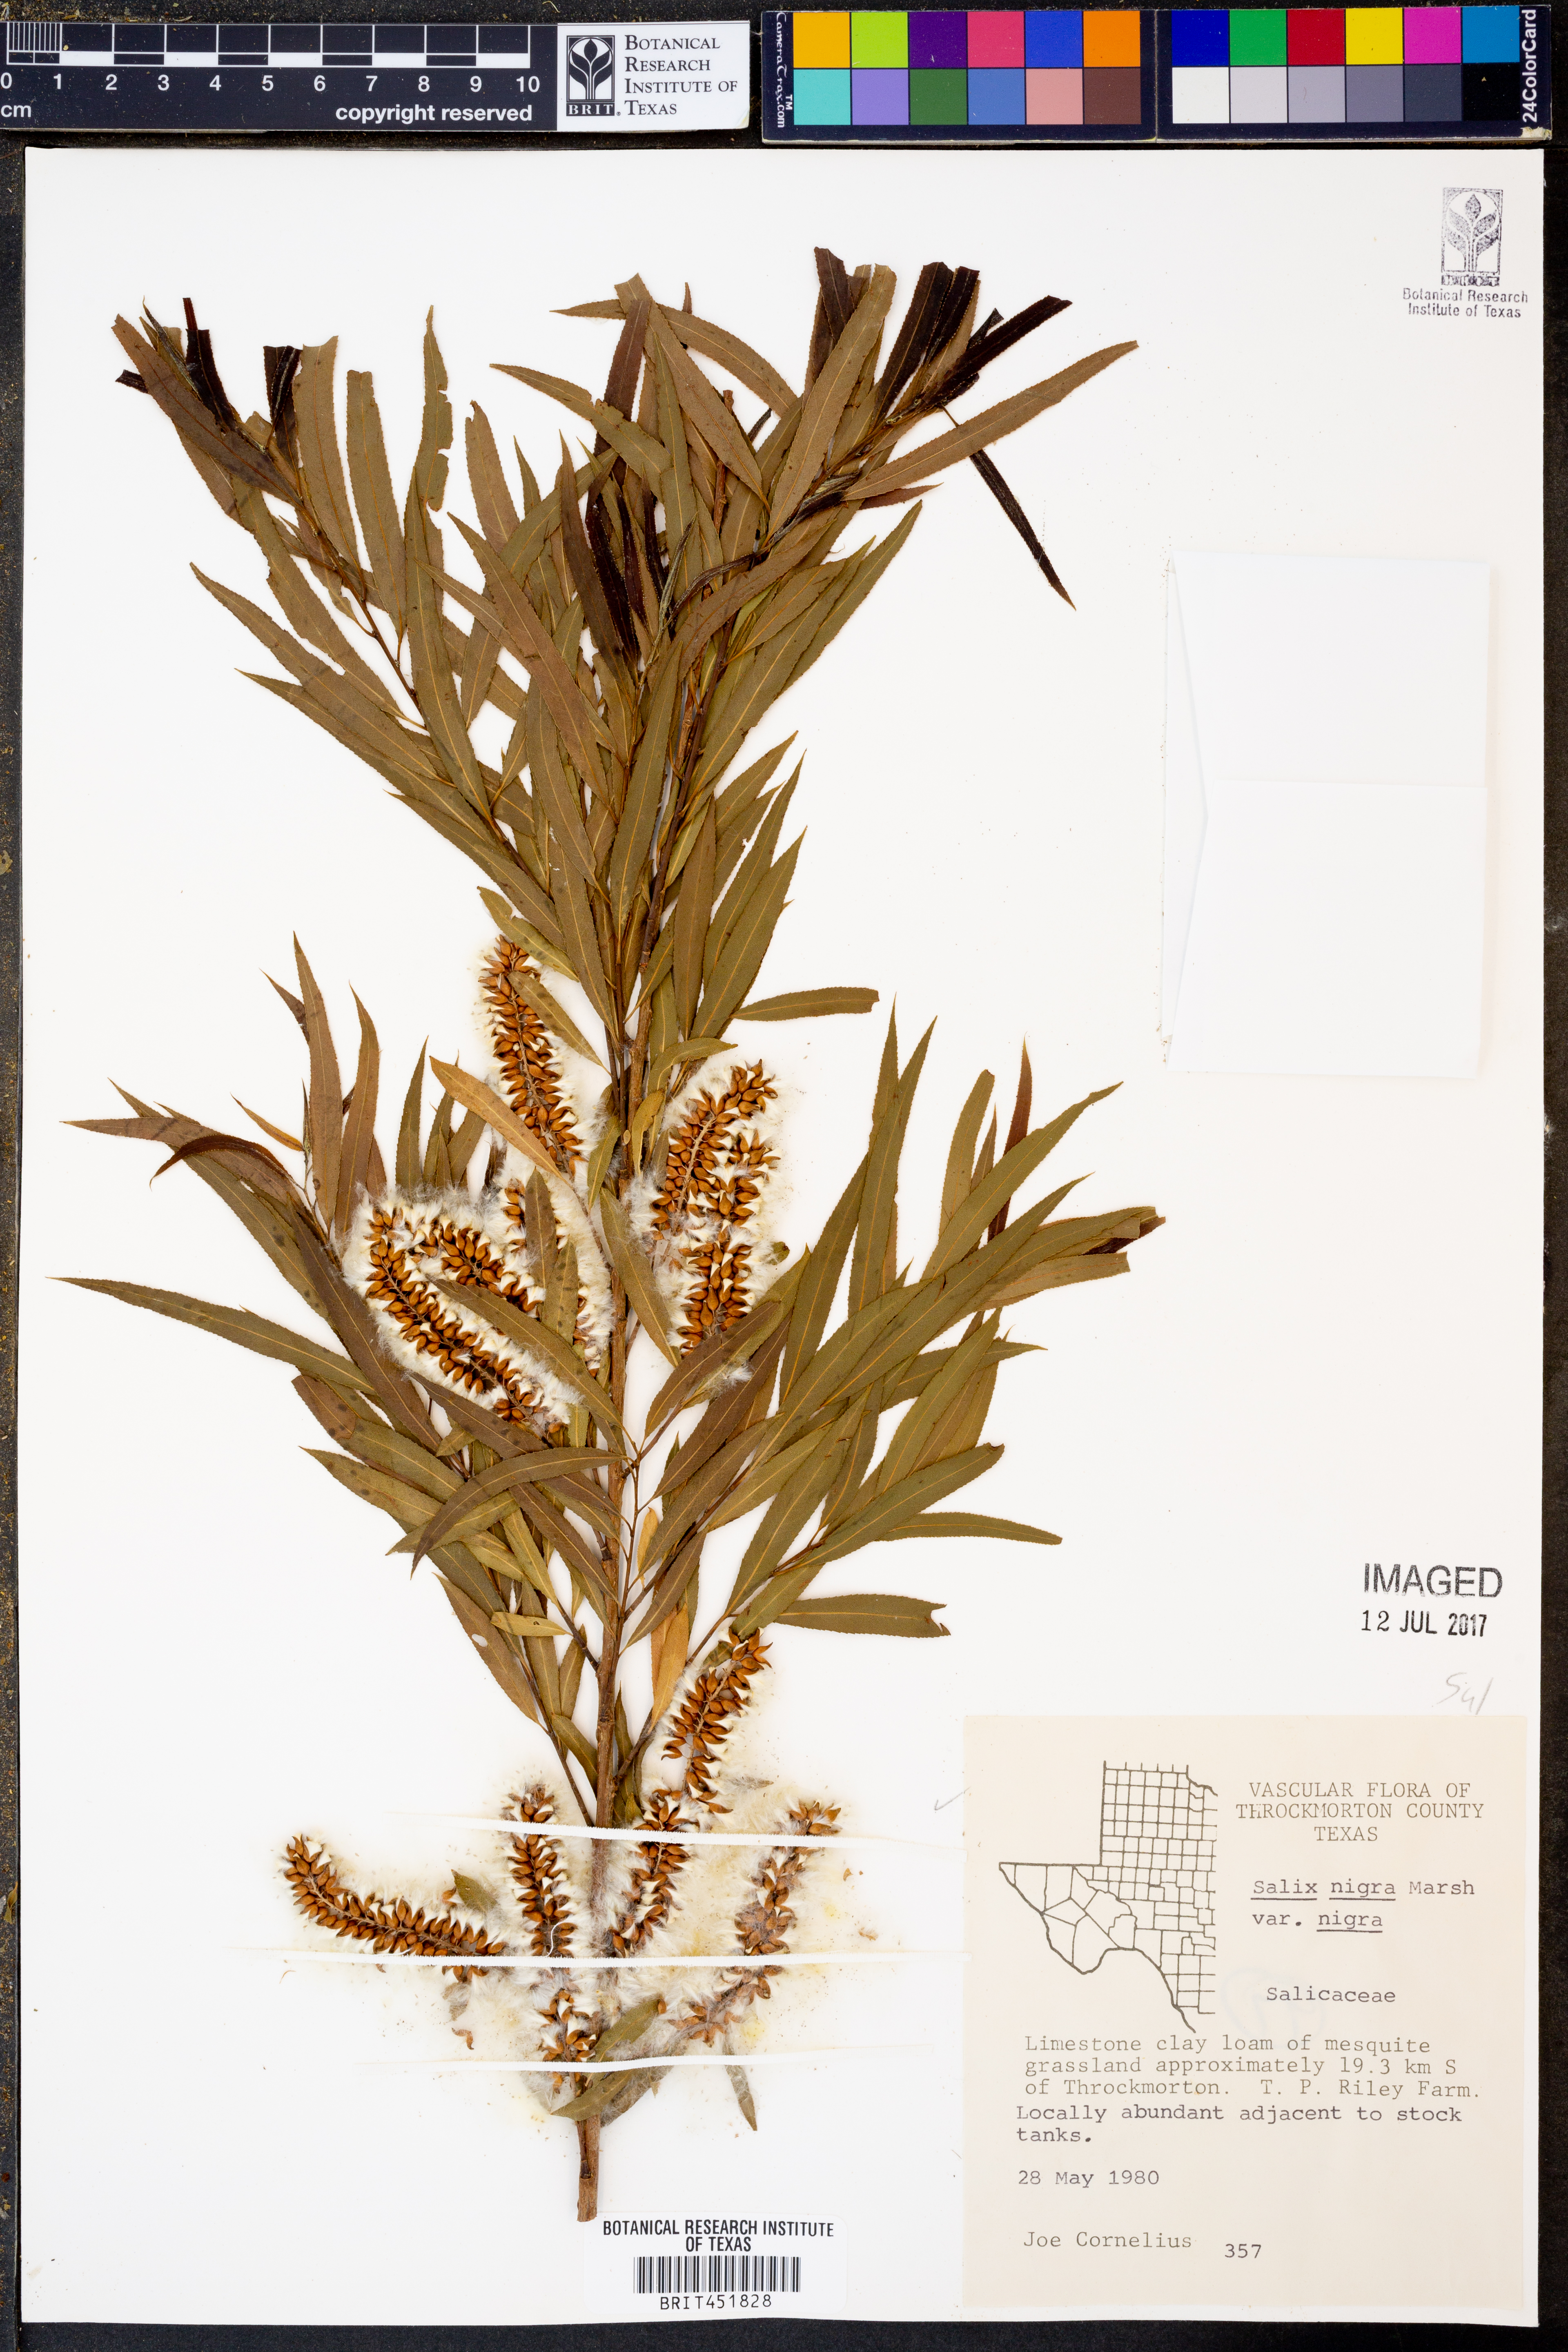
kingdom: Plantae
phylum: Tracheophyta
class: Magnoliopsida
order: Malpighiales
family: Salicaceae
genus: Salix
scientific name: Salix nigra
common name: Black willow
